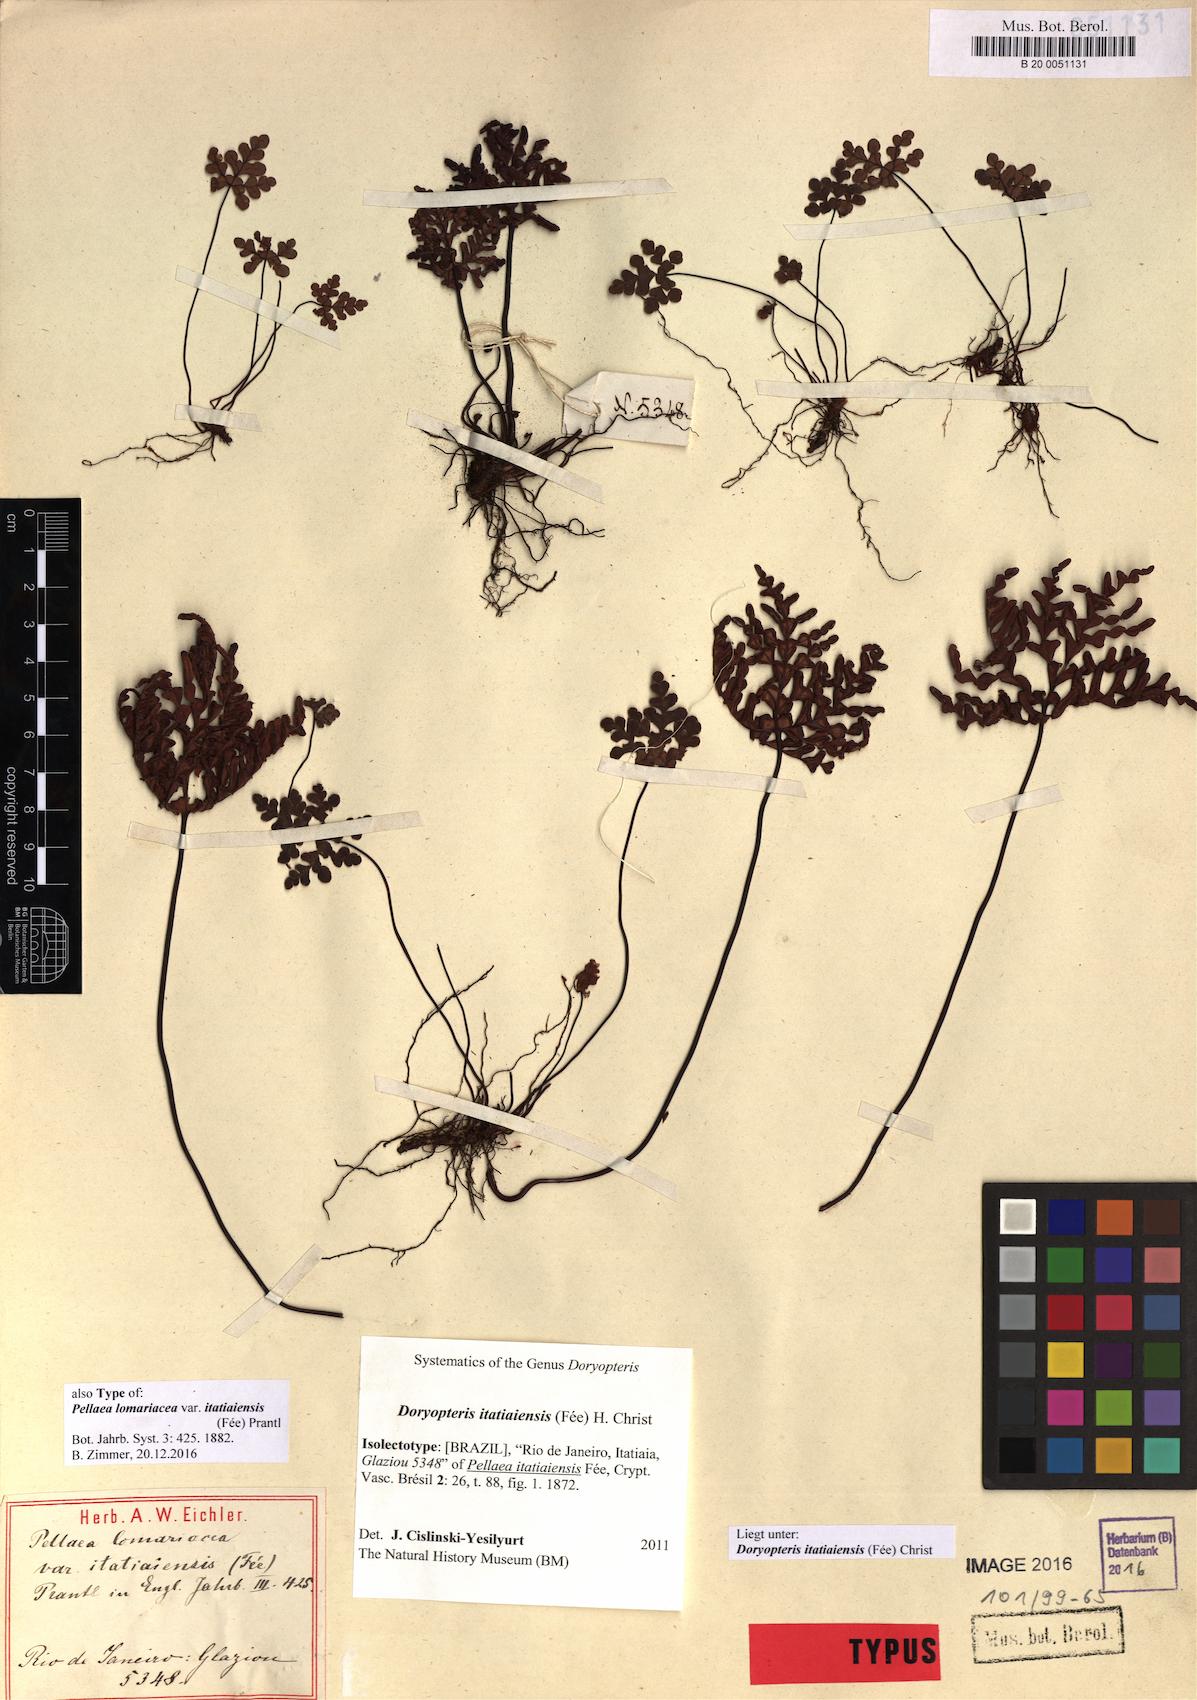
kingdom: Plantae
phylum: Tracheophyta
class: Polypodiopsida
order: Polypodiales
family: Pteridaceae
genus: Lytoneuron
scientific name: Lytoneuron itatiaiense
